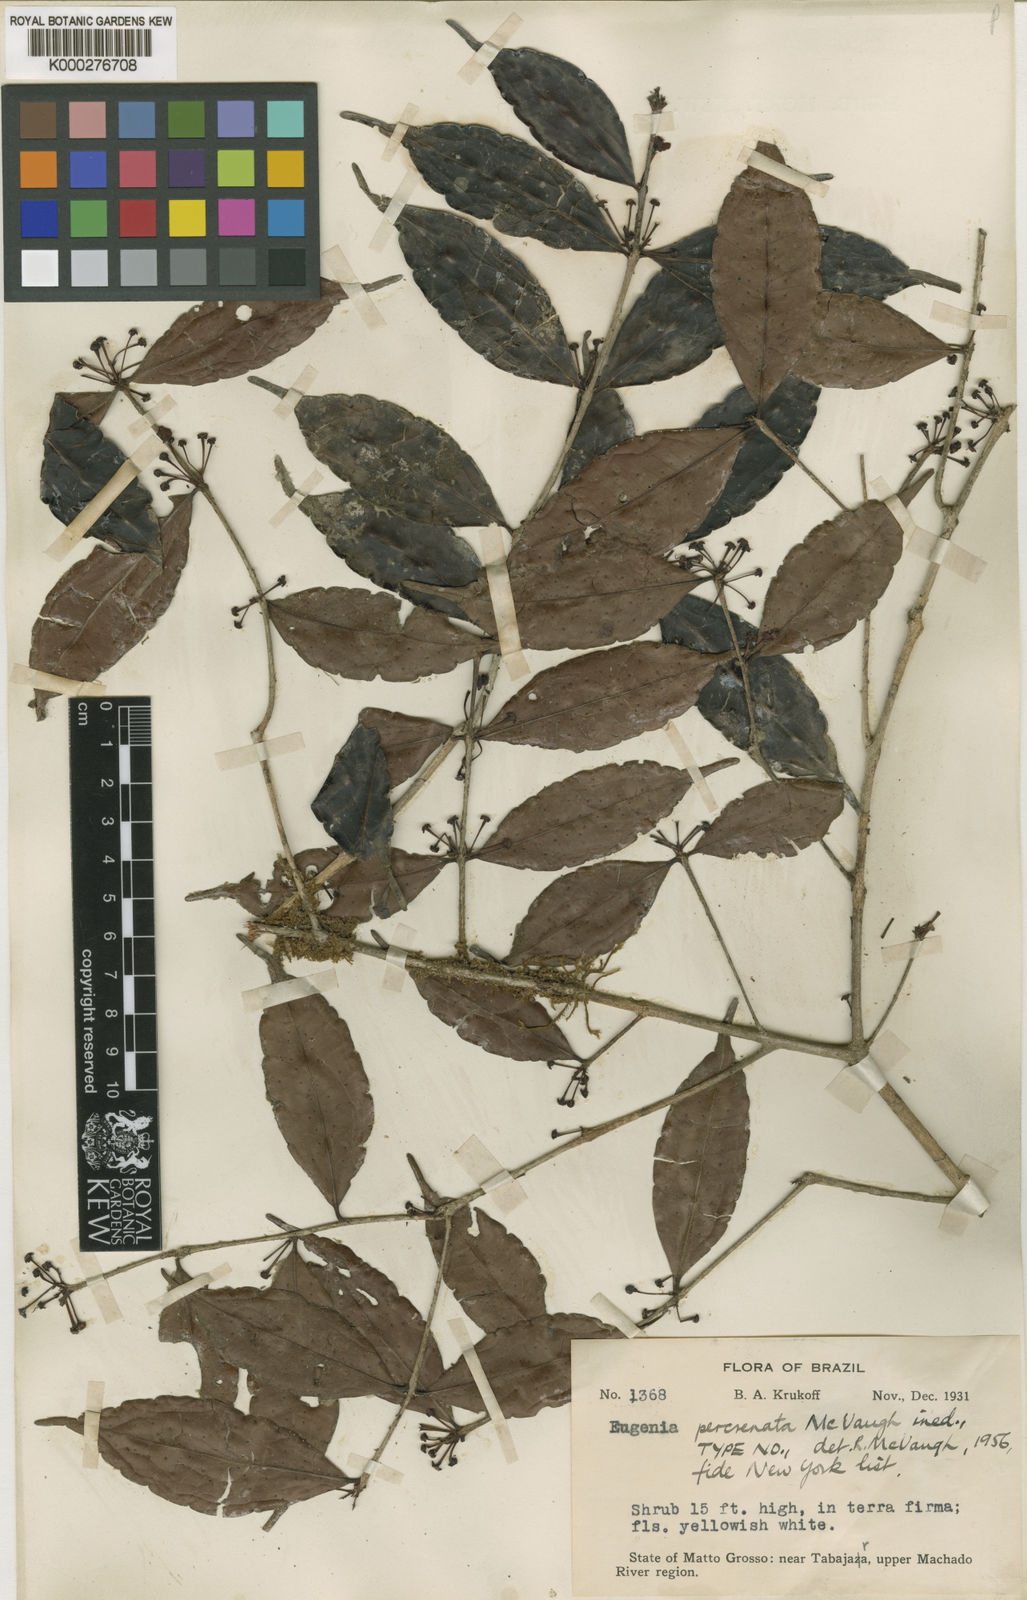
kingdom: Plantae
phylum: Tracheophyta
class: Magnoliopsida
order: Myrtales
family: Myrtaceae
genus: Eugenia
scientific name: Eugenia percrenata
